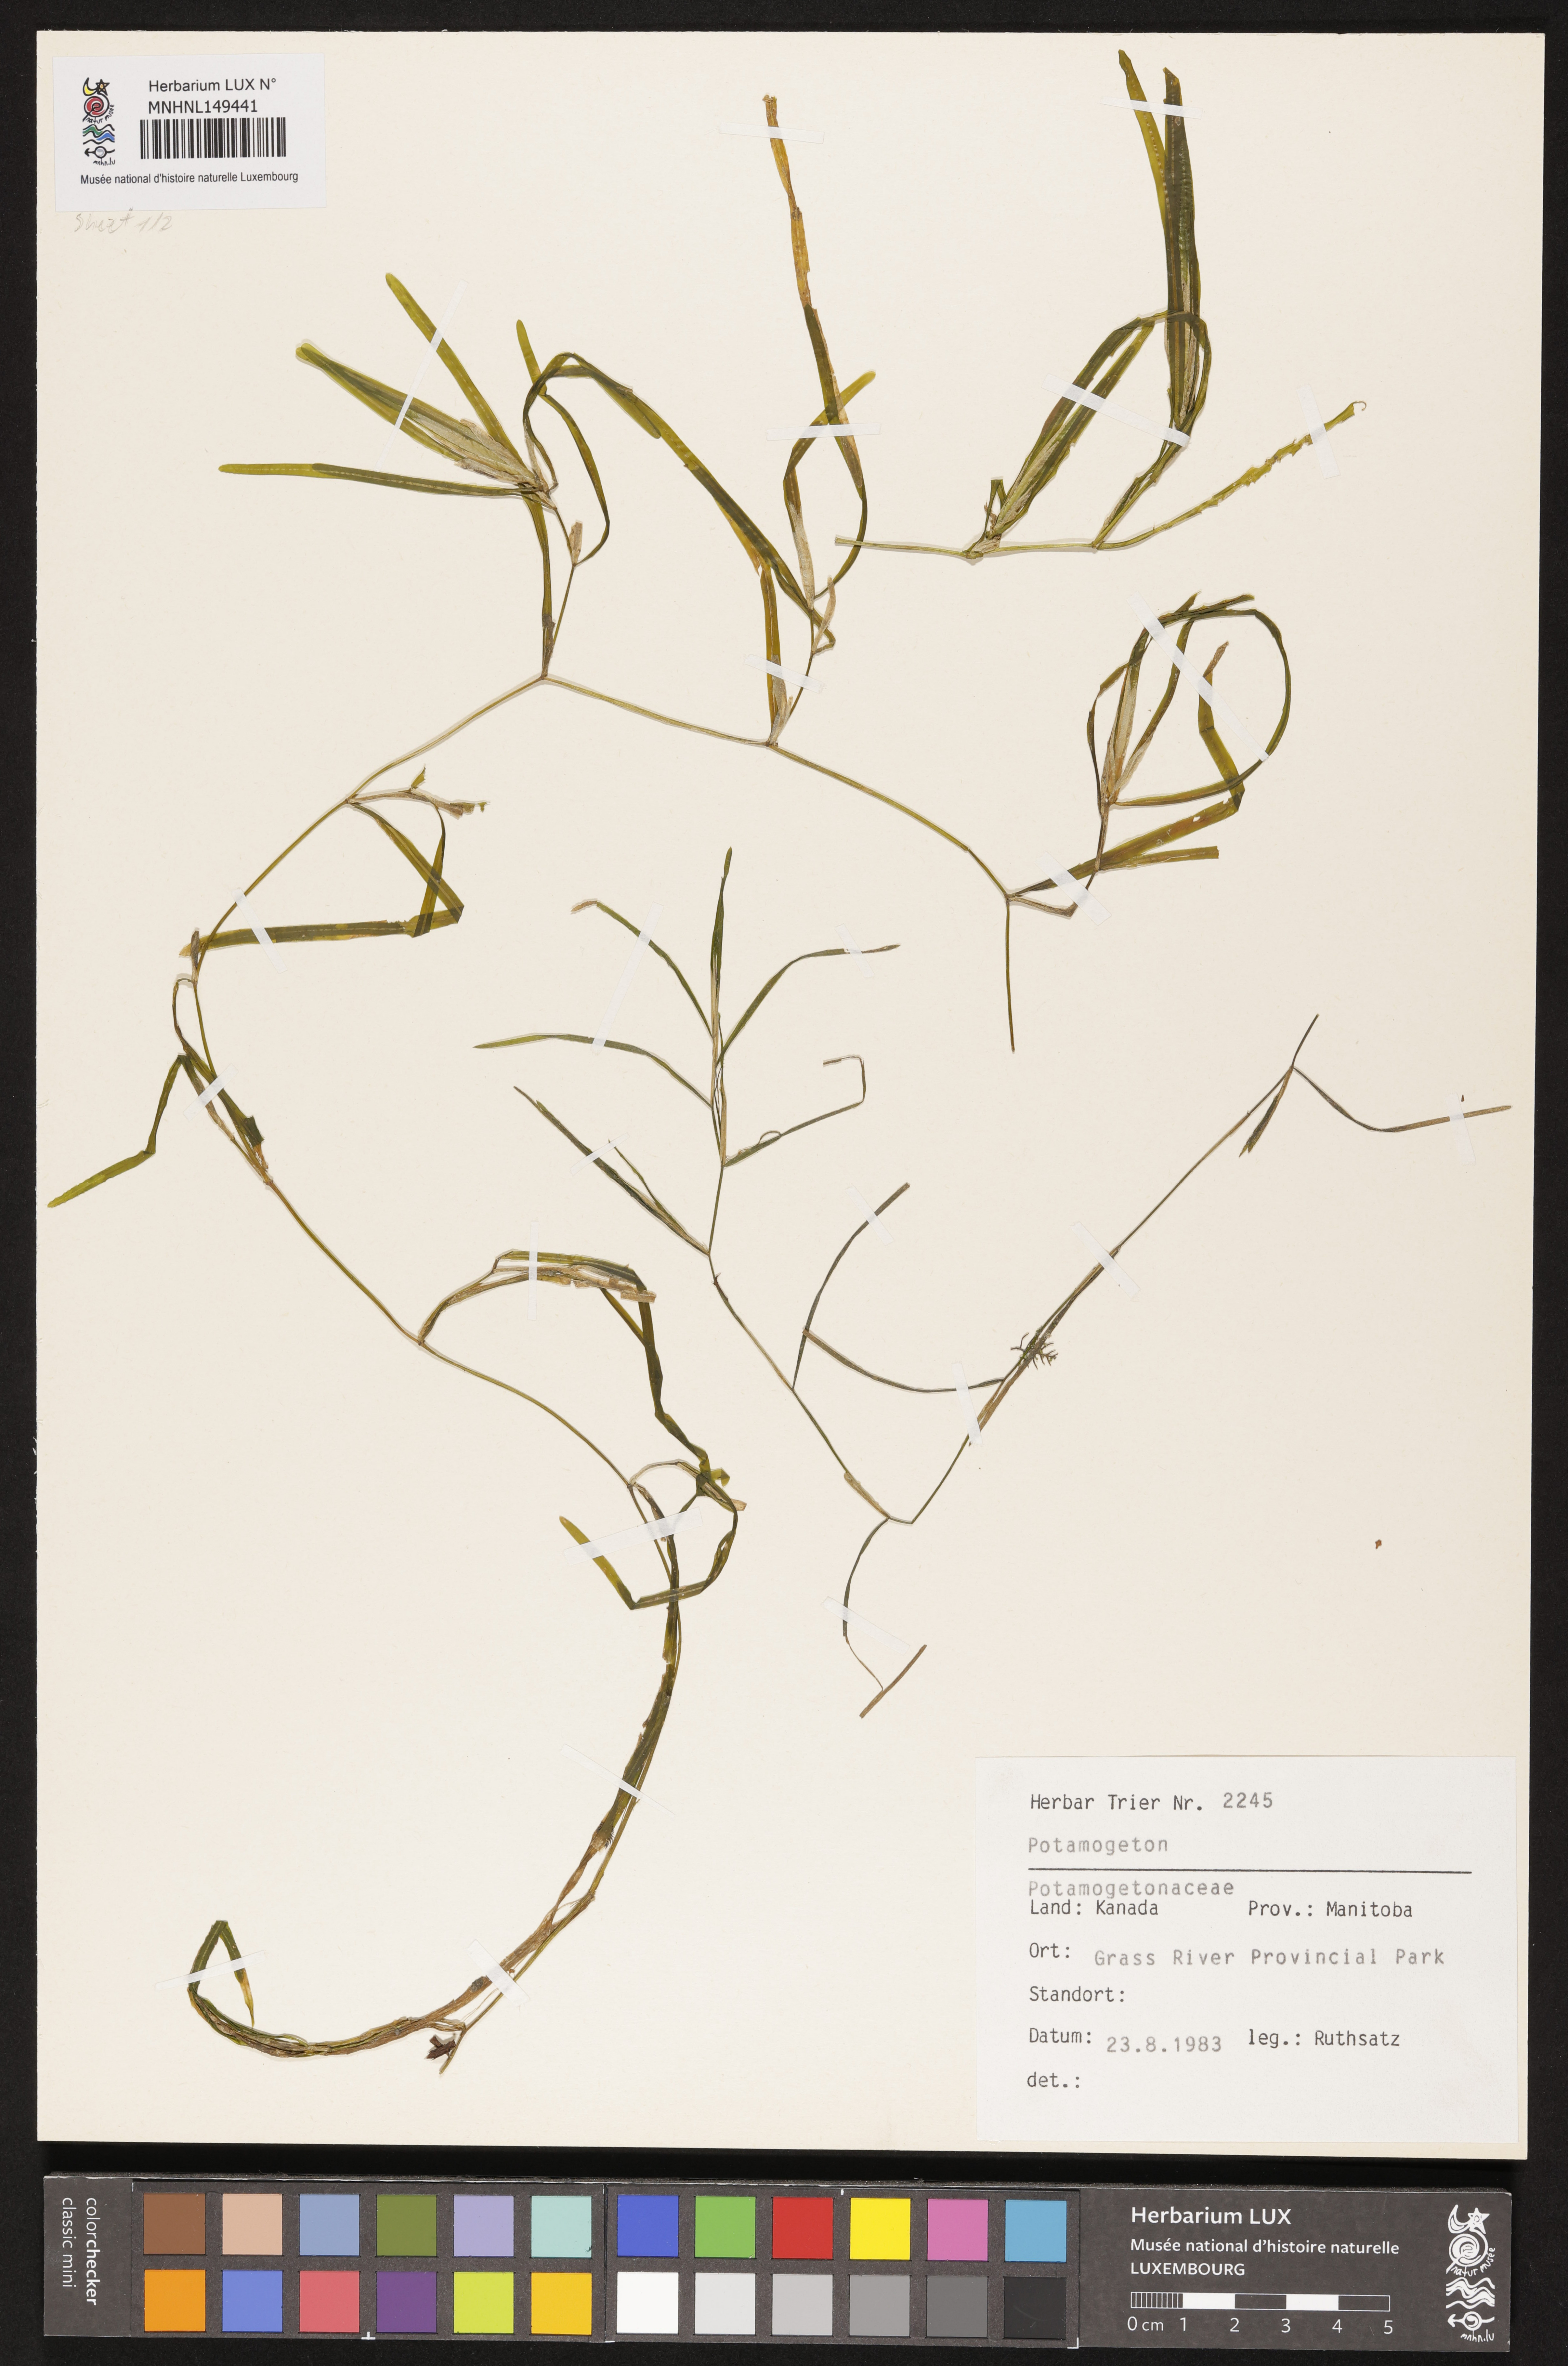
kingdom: Plantae
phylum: Tracheophyta
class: Liliopsida
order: Alismatales
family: Potamogetonaceae
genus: Potamogeton
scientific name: Potamogeton
